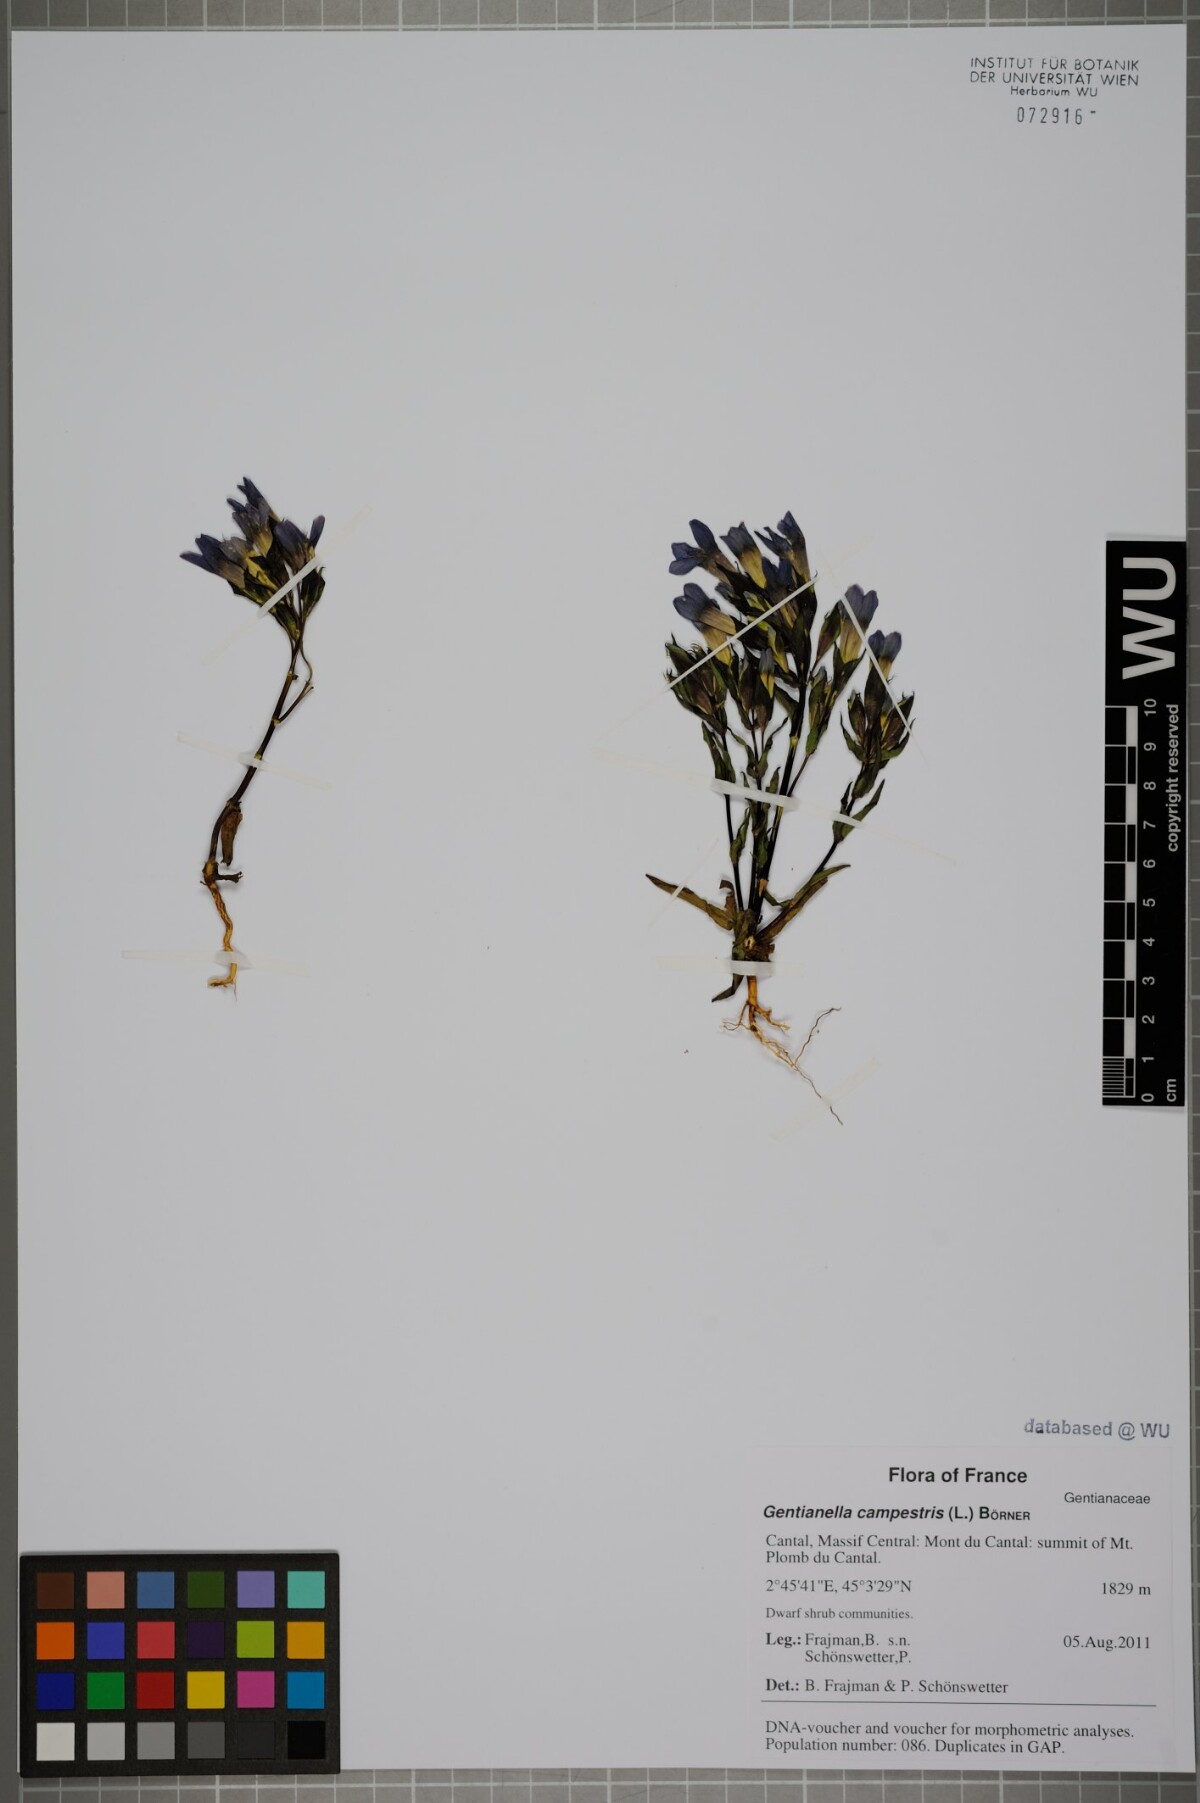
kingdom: Plantae
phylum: Tracheophyta
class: Magnoliopsida
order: Gentianales
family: Gentianaceae
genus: Gentianella
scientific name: Gentianella campestris
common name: Field gentian
